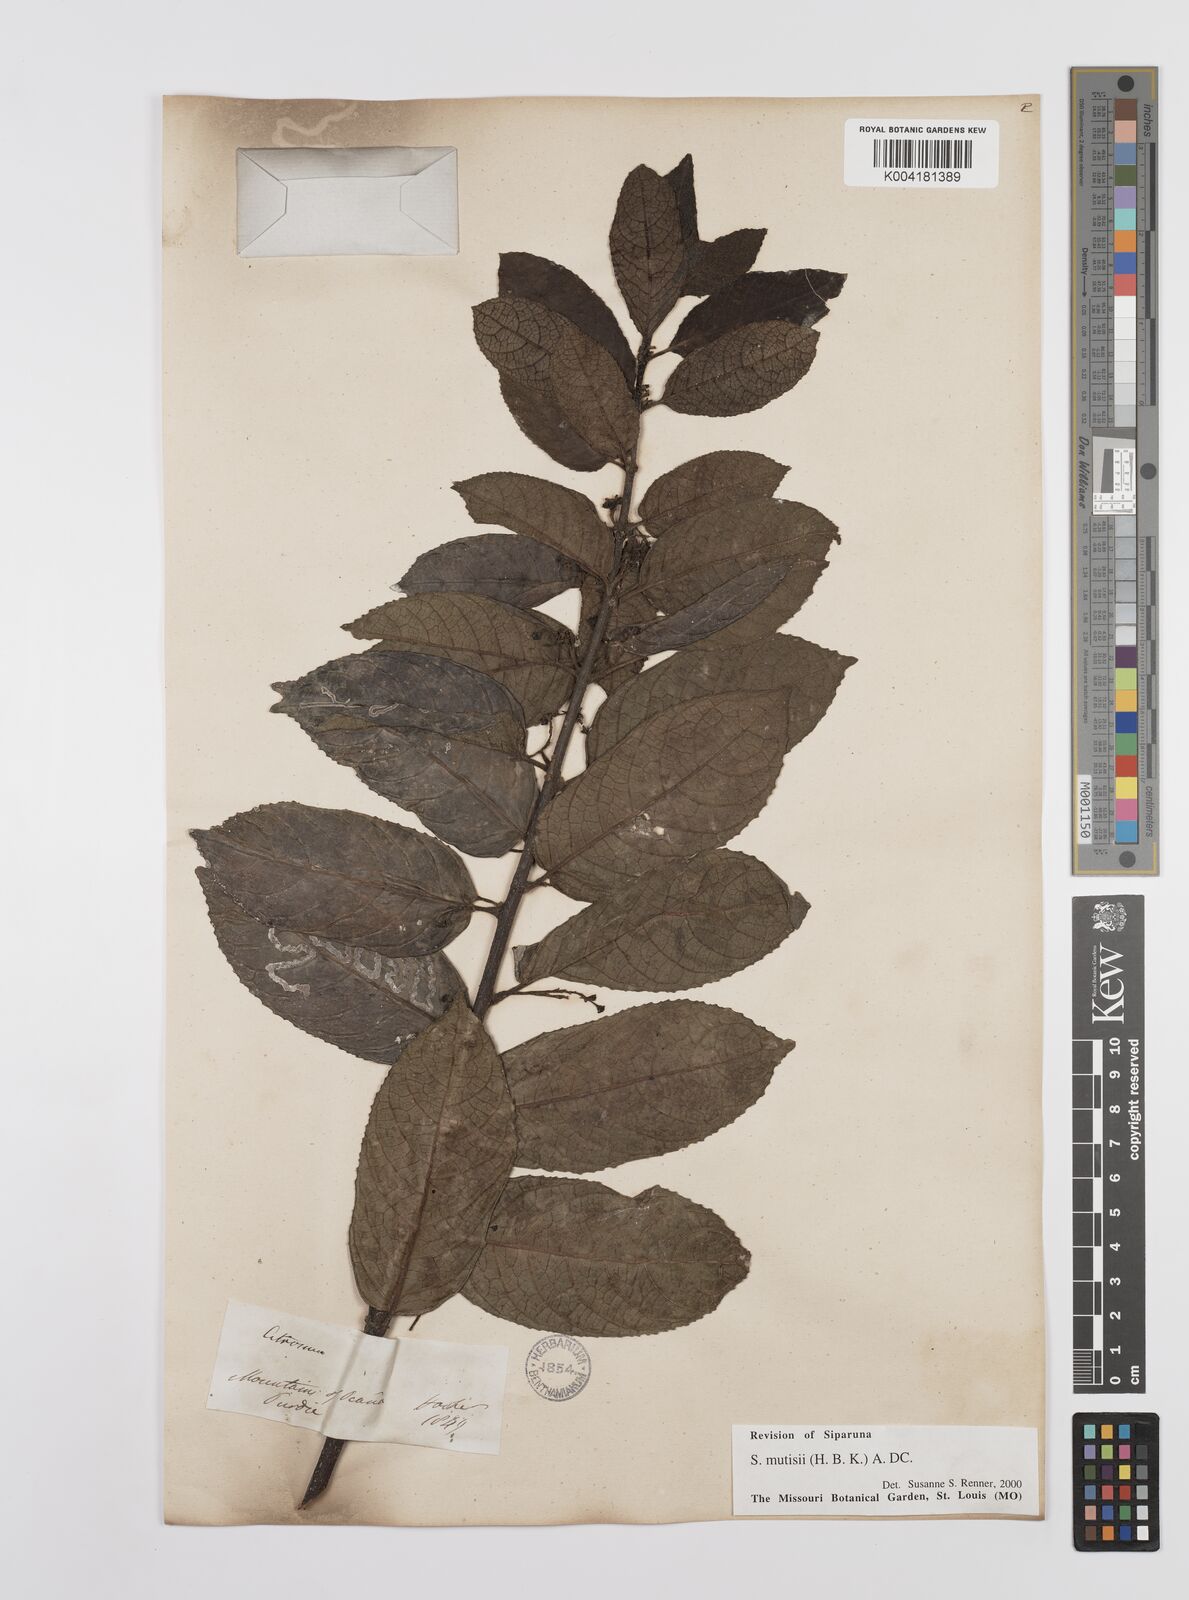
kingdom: Plantae
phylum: Tracheophyta
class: Magnoliopsida
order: Laurales
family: Siparunaceae
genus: Siparuna
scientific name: Siparuna mutisii
